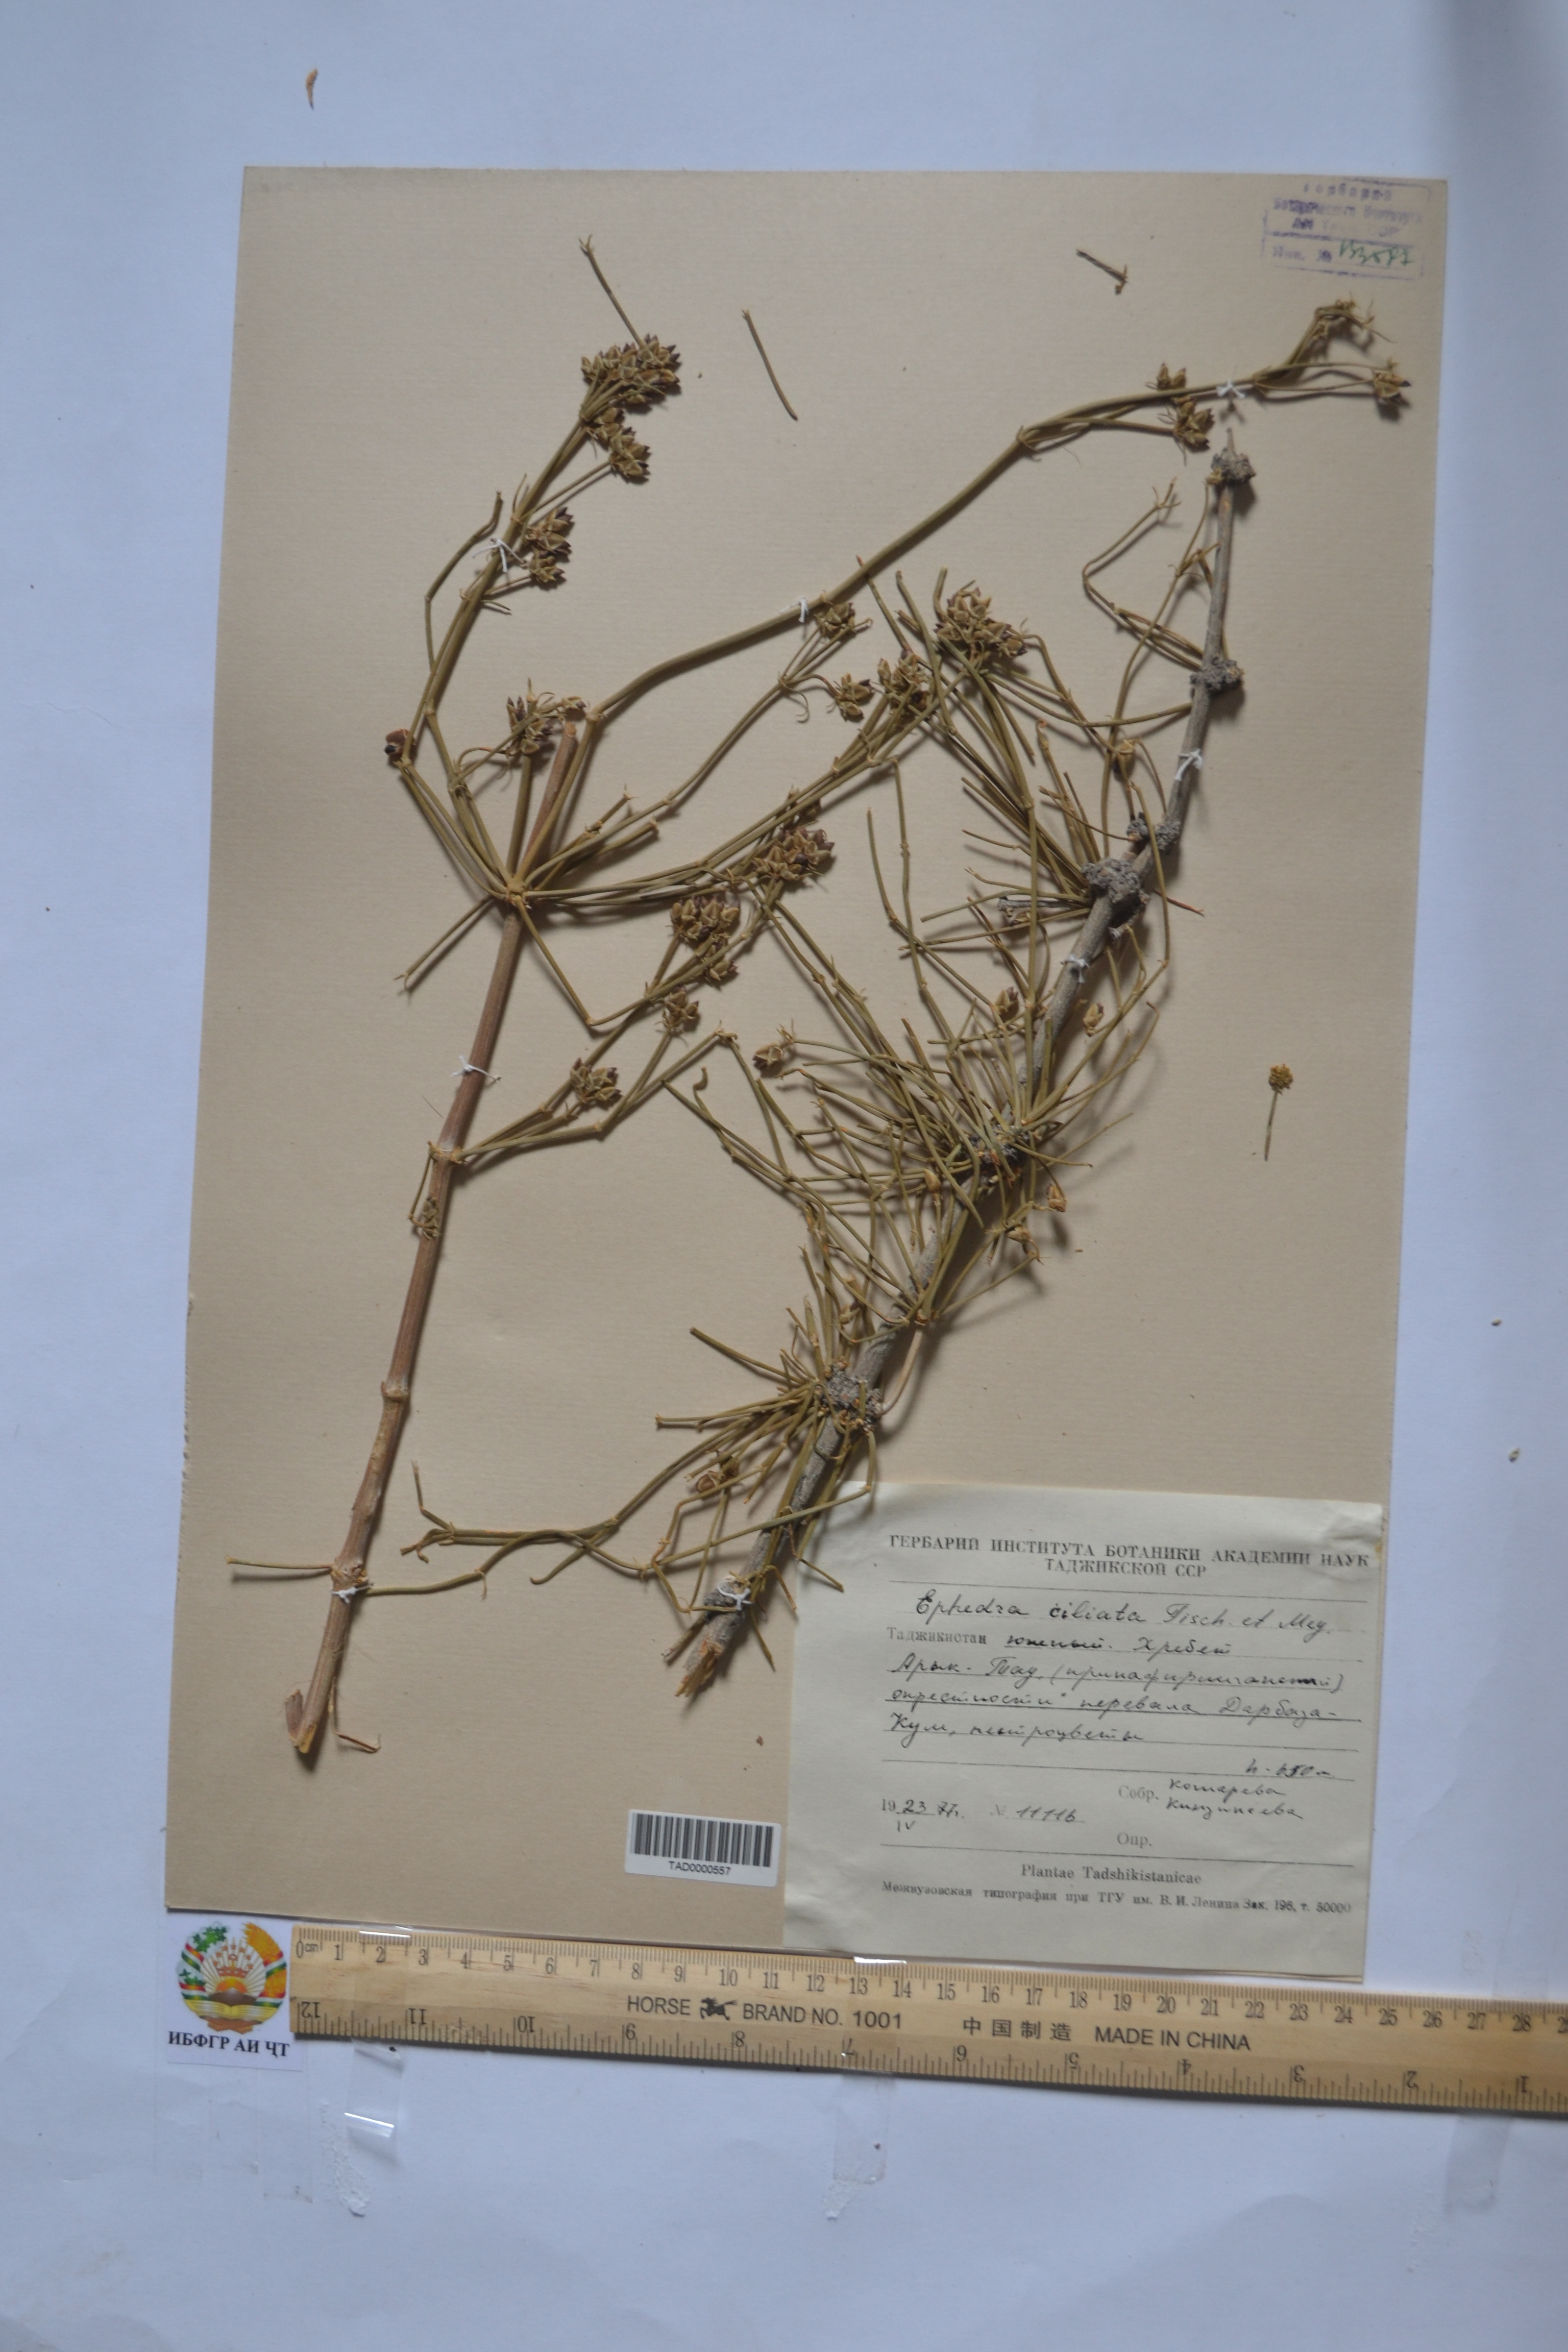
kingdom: Plantae
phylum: Tracheophyta
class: Gnetopsida
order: Ephedrales
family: Ephedraceae
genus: Ephedra
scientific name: Ephedra ciliata
